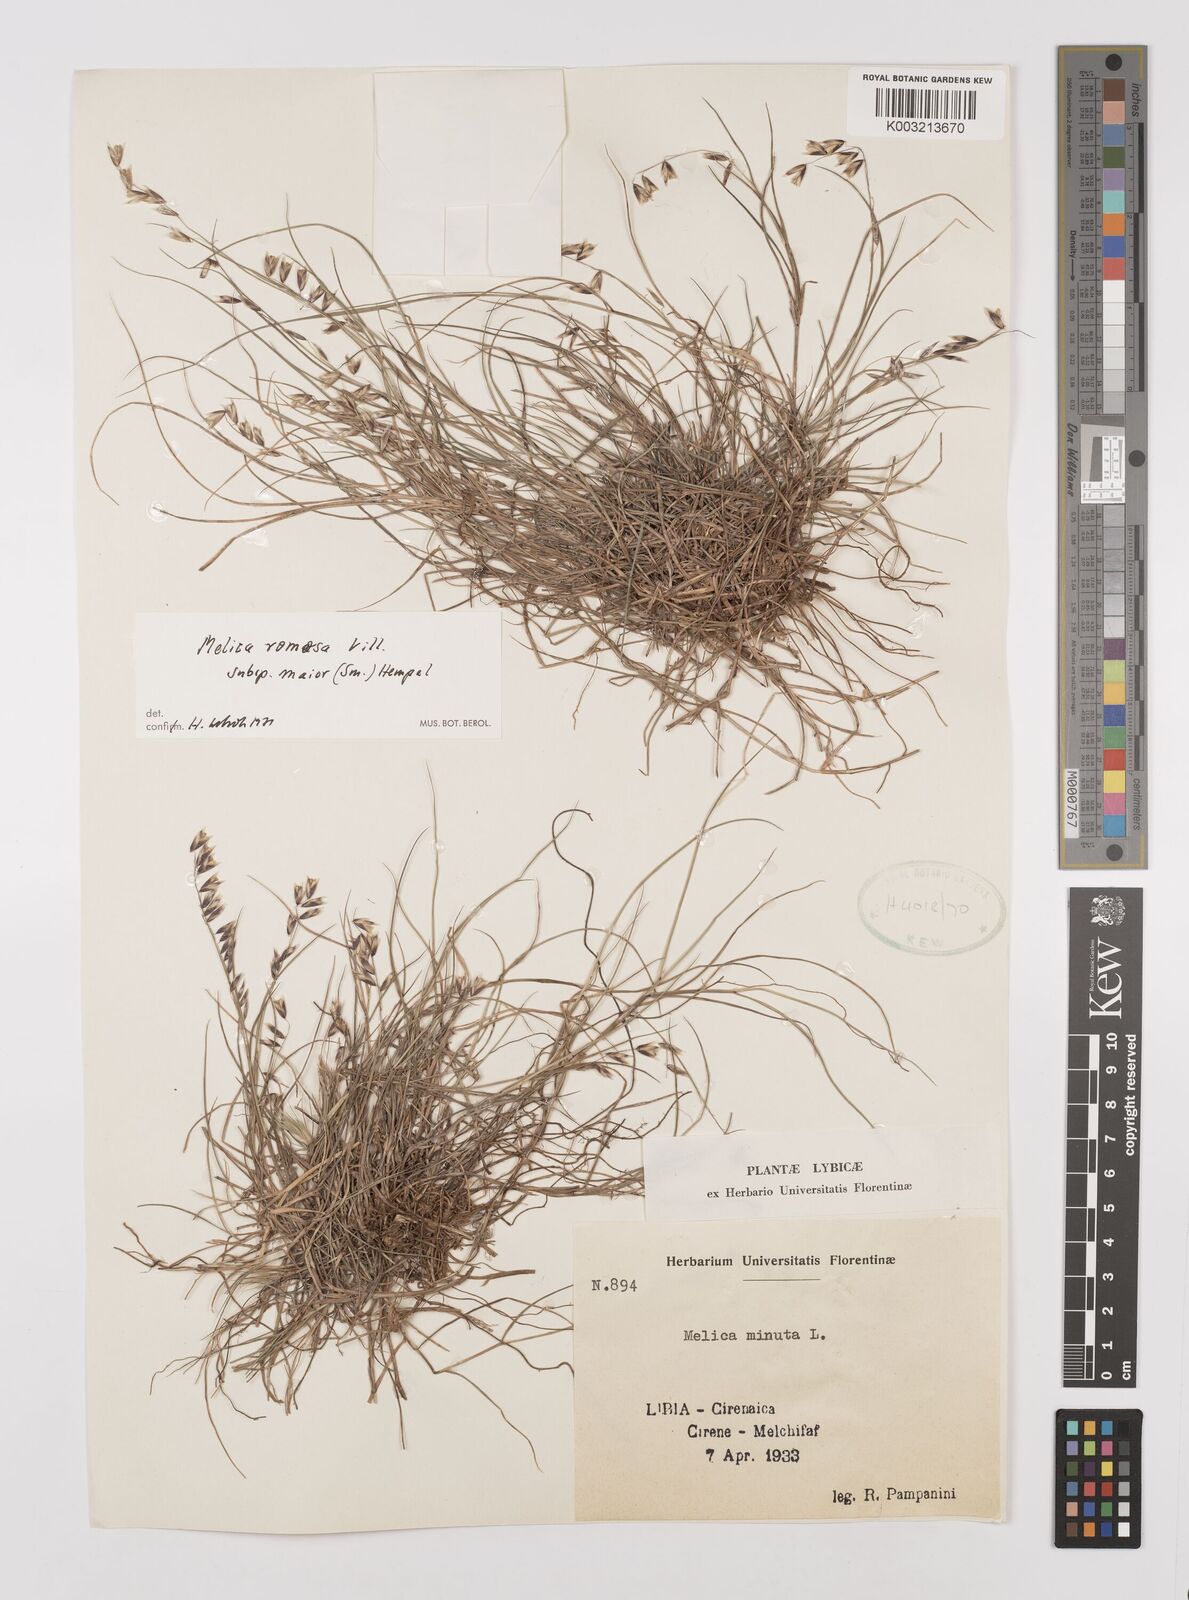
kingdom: Plantae
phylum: Tracheophyta
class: Liliopsida
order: Poales
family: Poaceae
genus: Melica
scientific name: Melica minuta
